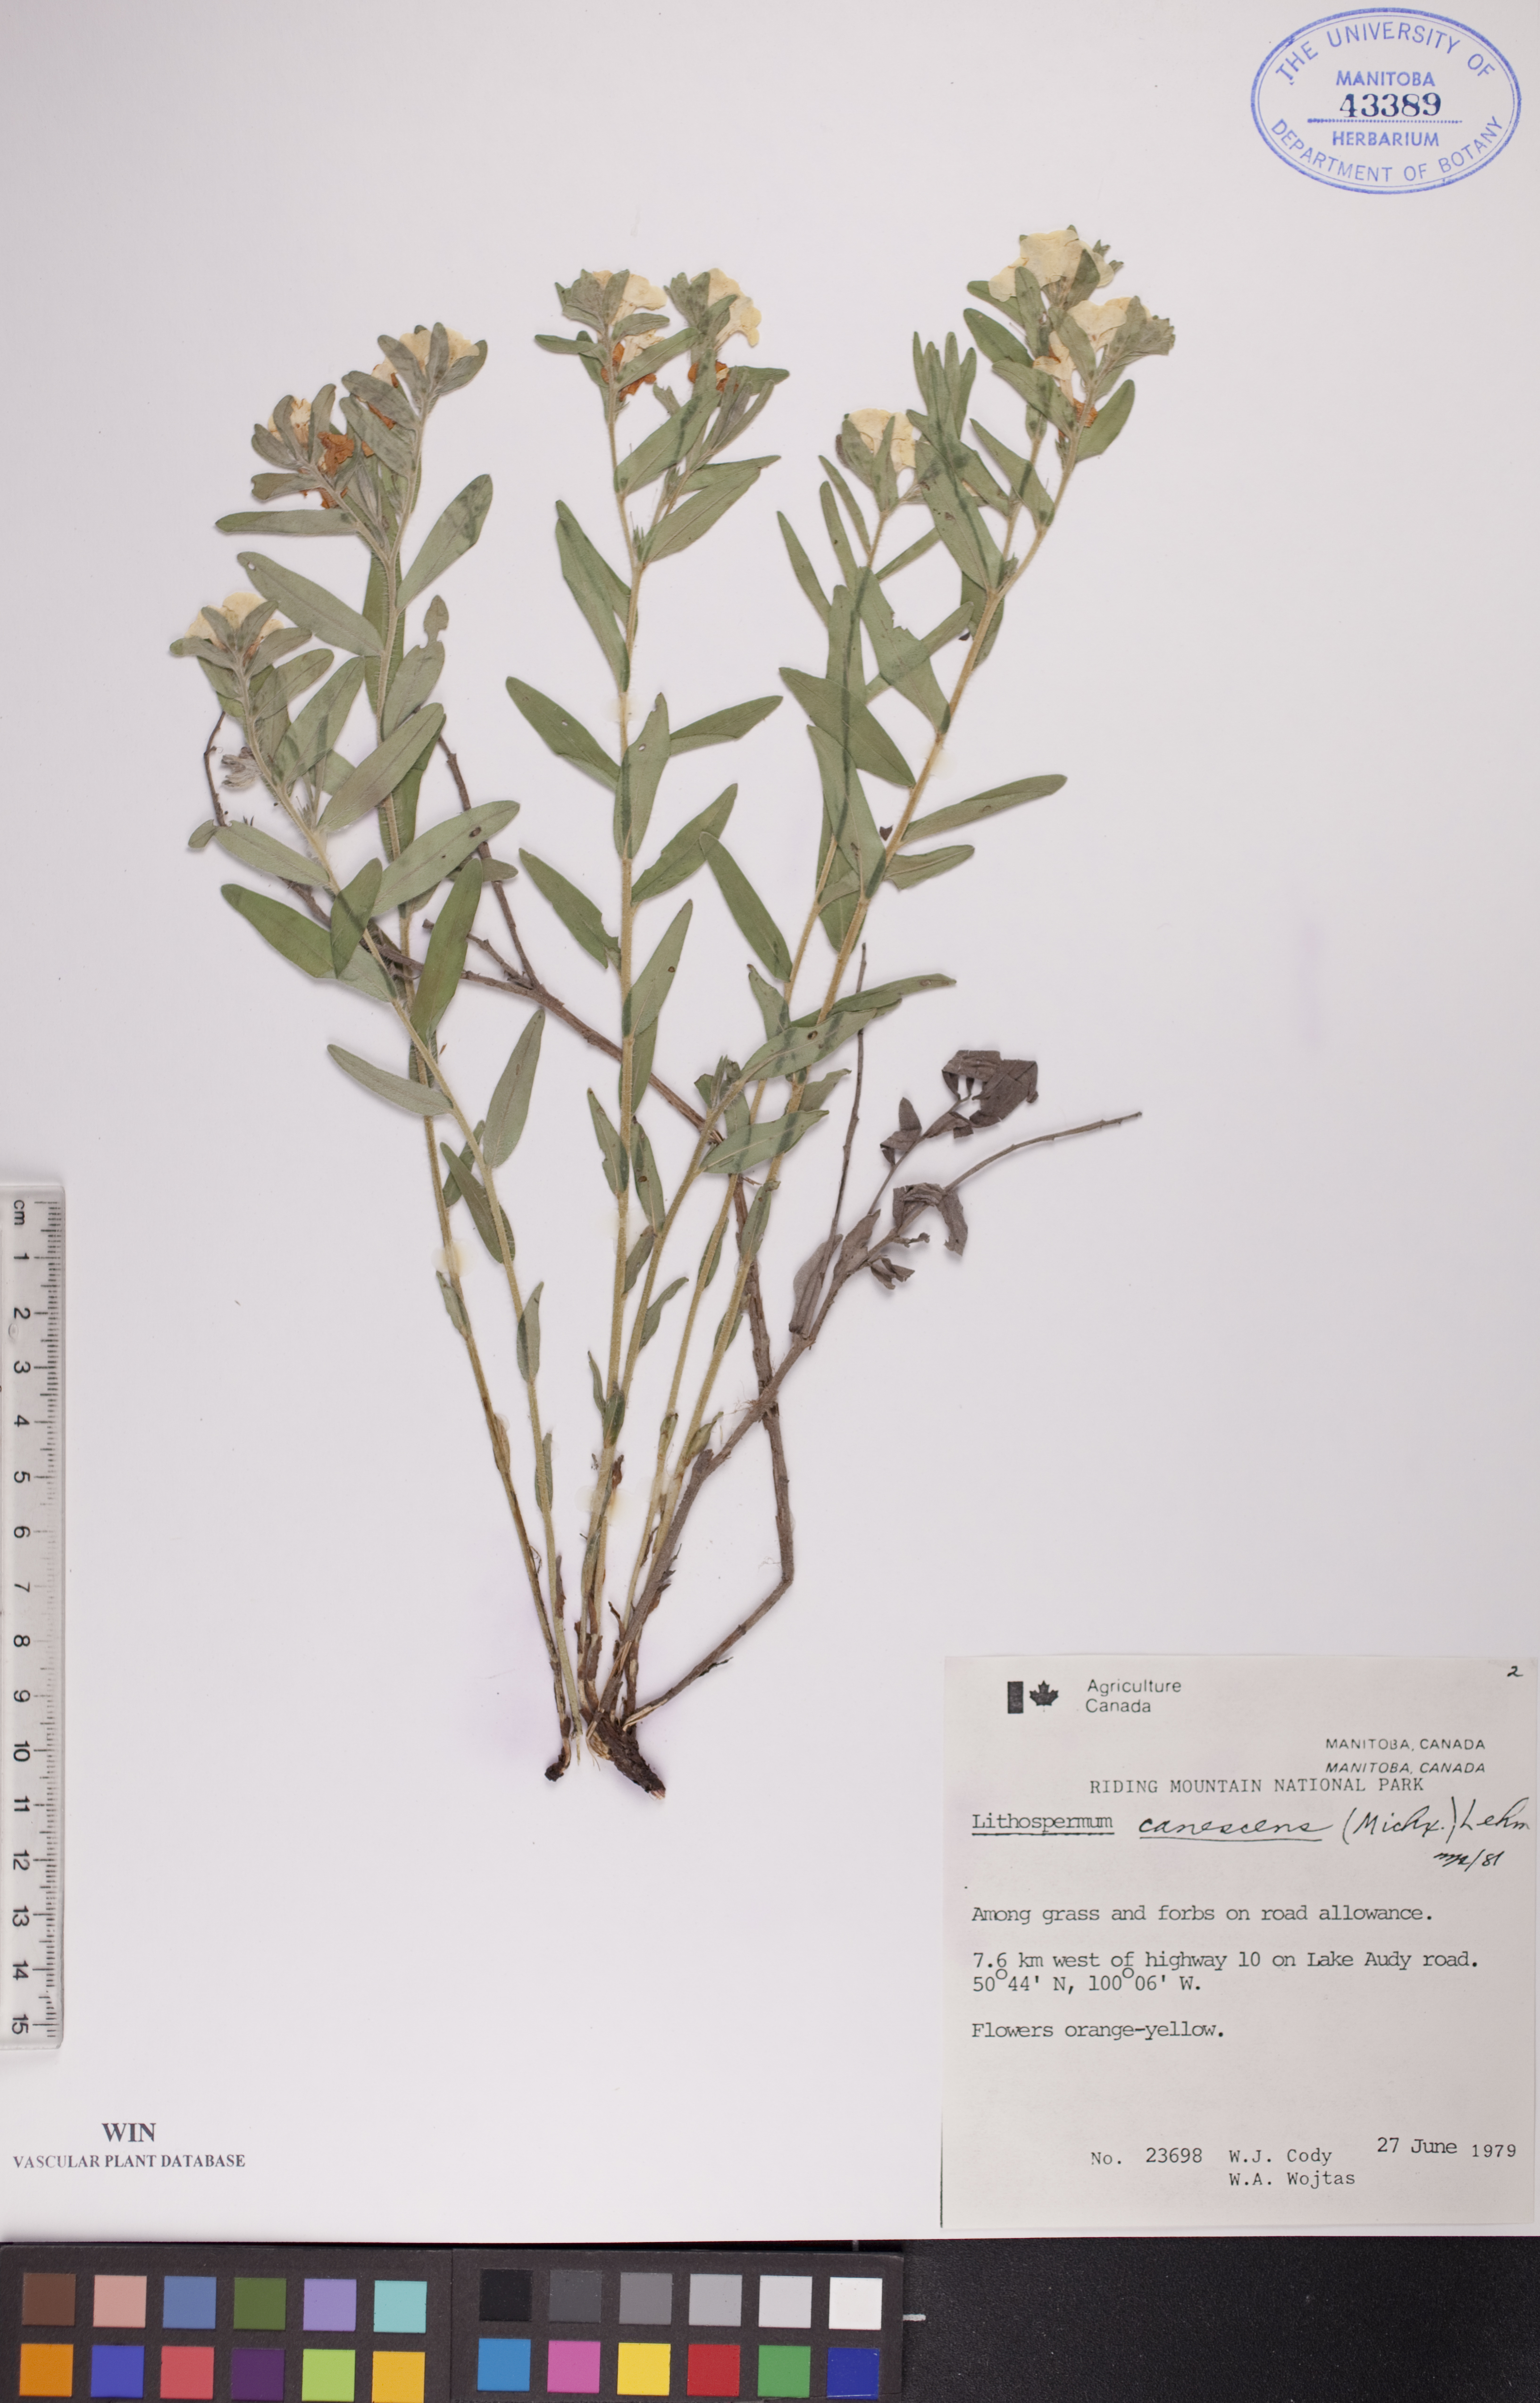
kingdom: Plantae
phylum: Tracheophyta
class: Magnoliopsida
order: Boraginales
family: Boraginaceae
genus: Lithospermum
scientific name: Lithospermum canescens
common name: Hoary puccoon
